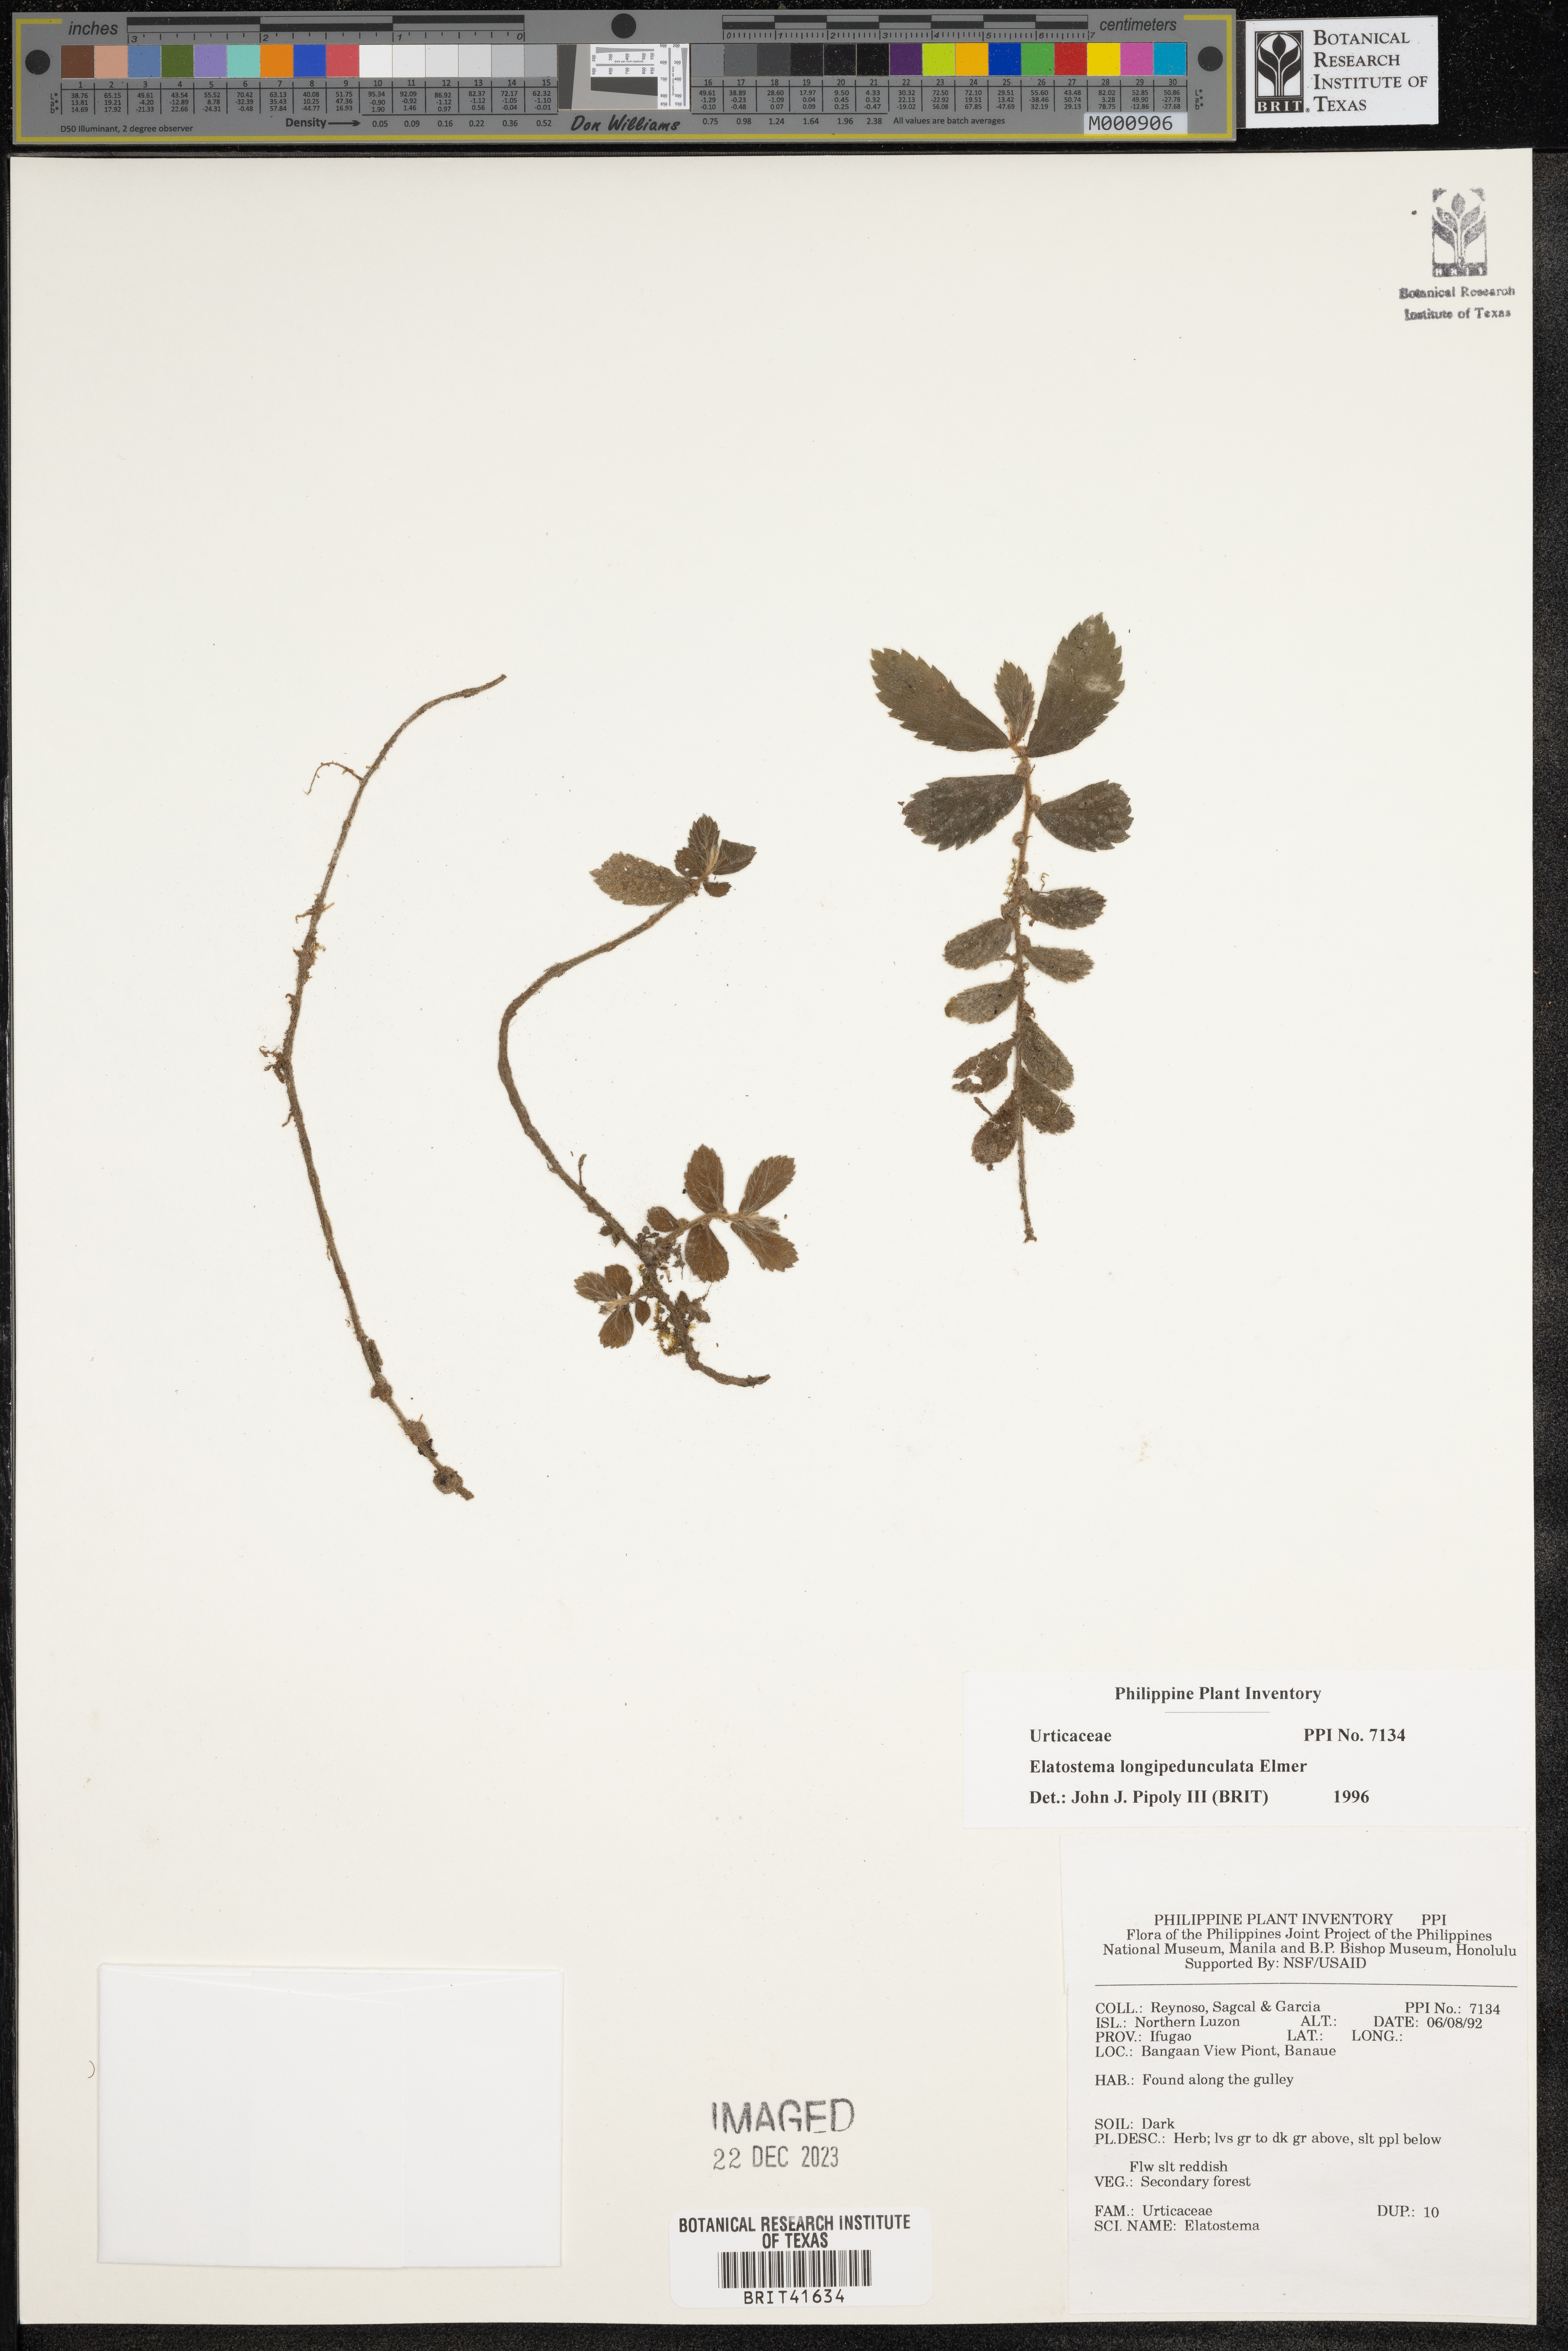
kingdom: Plantae
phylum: Tracheophyta
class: Magnoliopsida
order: Rosales
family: Urticaceae
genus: Elatostema
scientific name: Elatostema longipedunculatum
